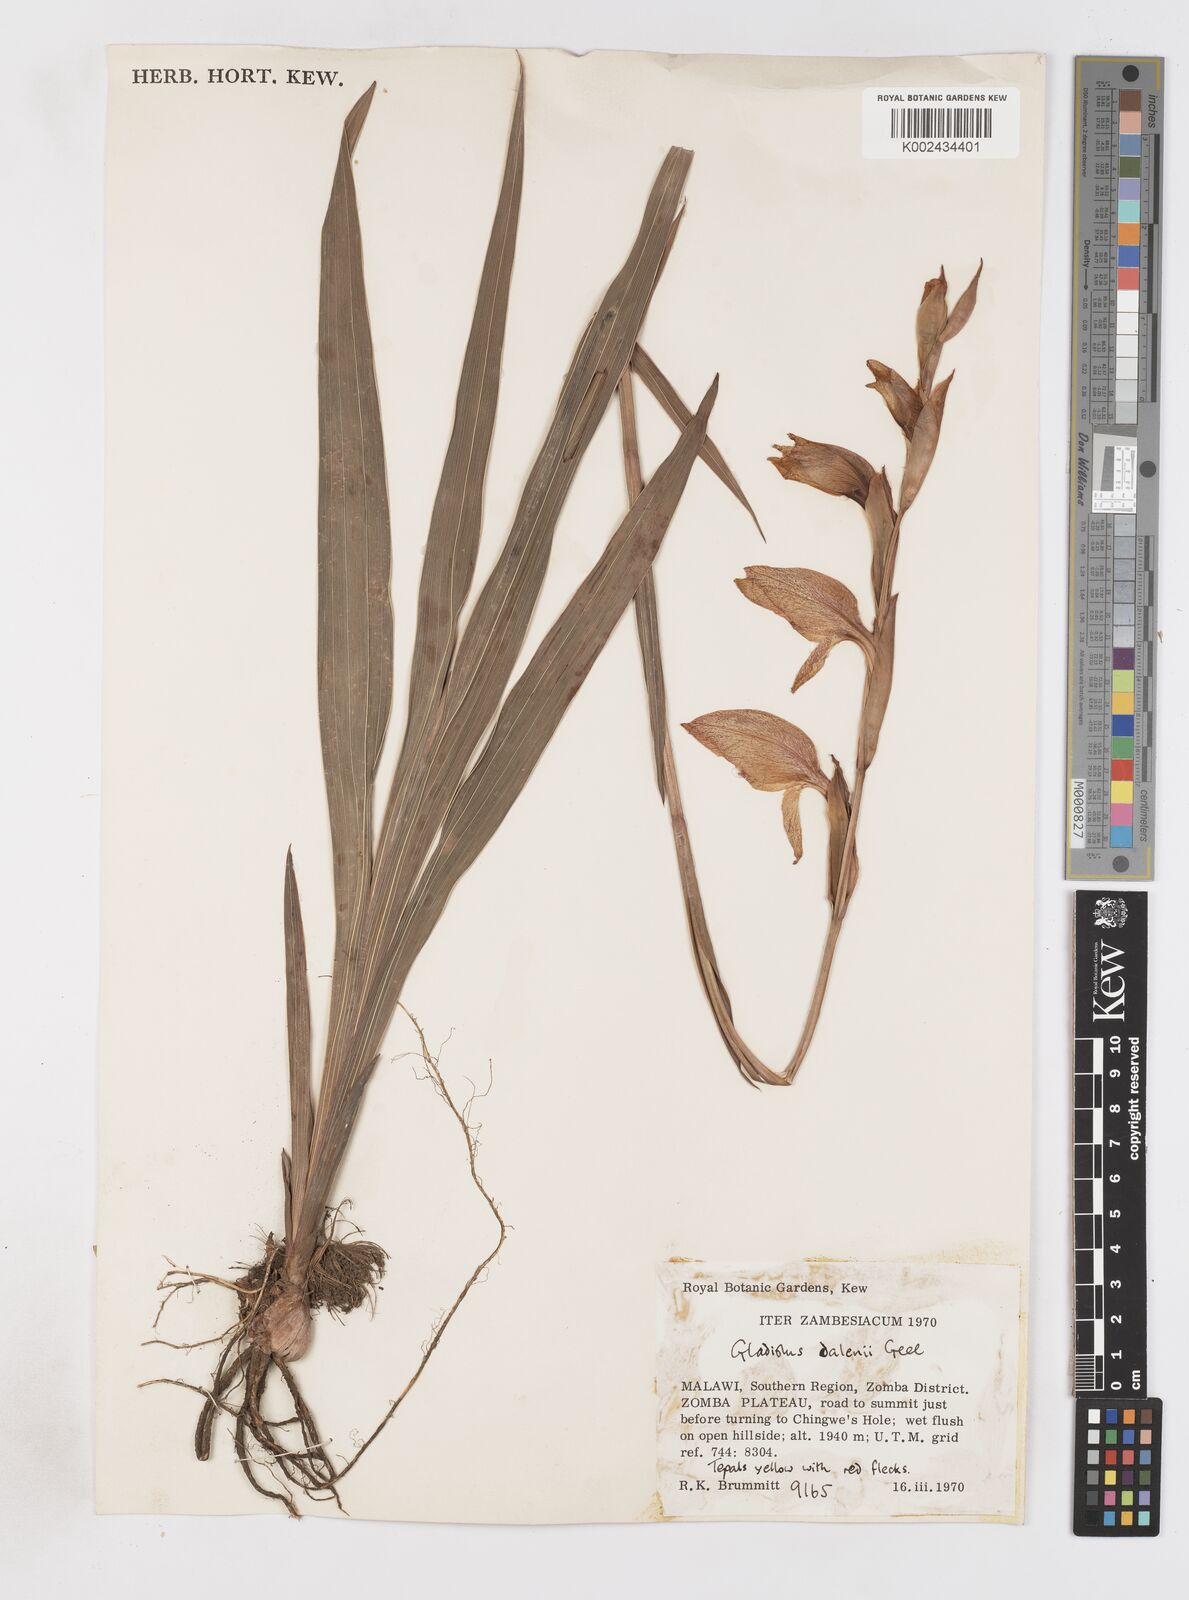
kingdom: Plantae
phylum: Tracheophyta
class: Liliopsida
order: Asparagales
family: Iridaceae
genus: Gladiolus
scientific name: Gladiolus dalenii
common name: Cornflag
